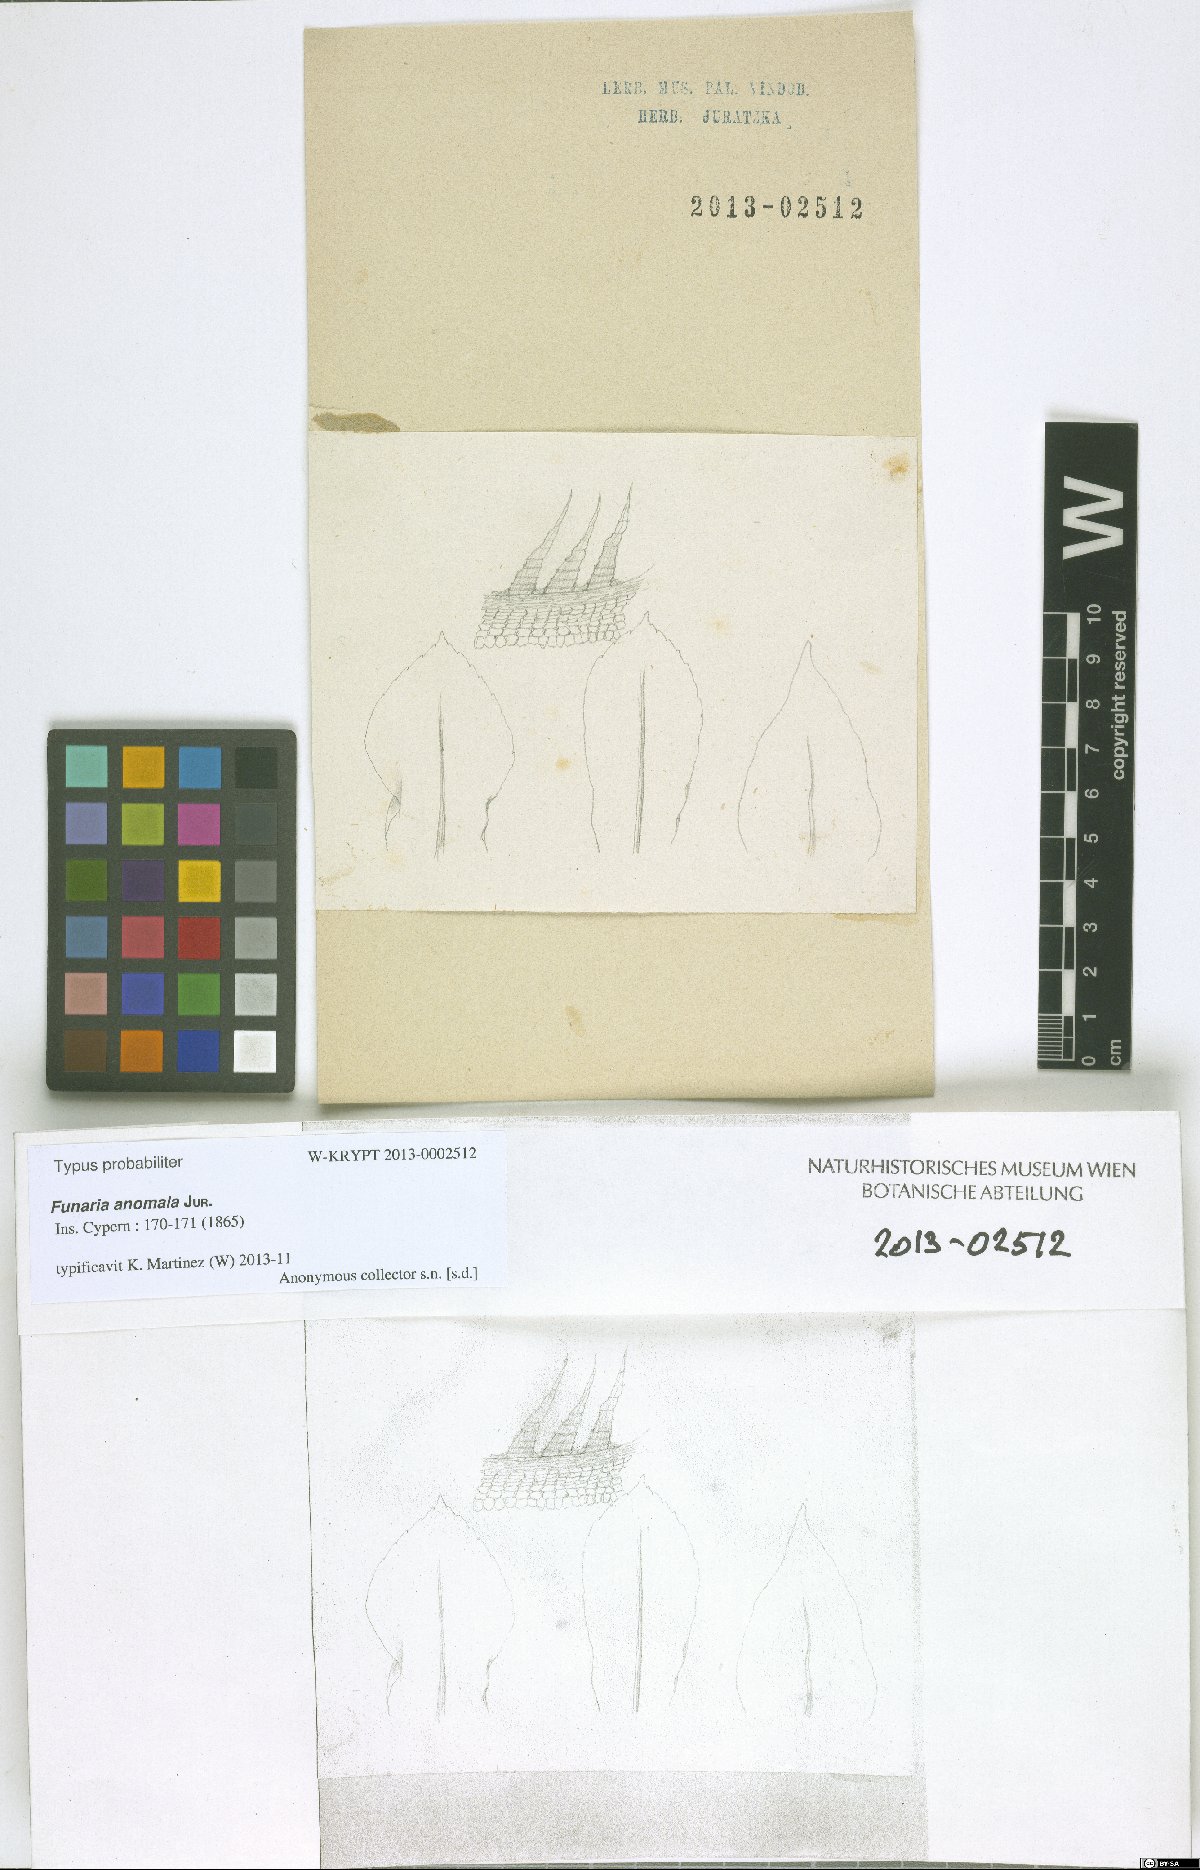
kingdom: Plantae
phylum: Bryophyta
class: Bryopsida
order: Funariales
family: Funariaceae
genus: Funaria
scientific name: Funaria anomala
